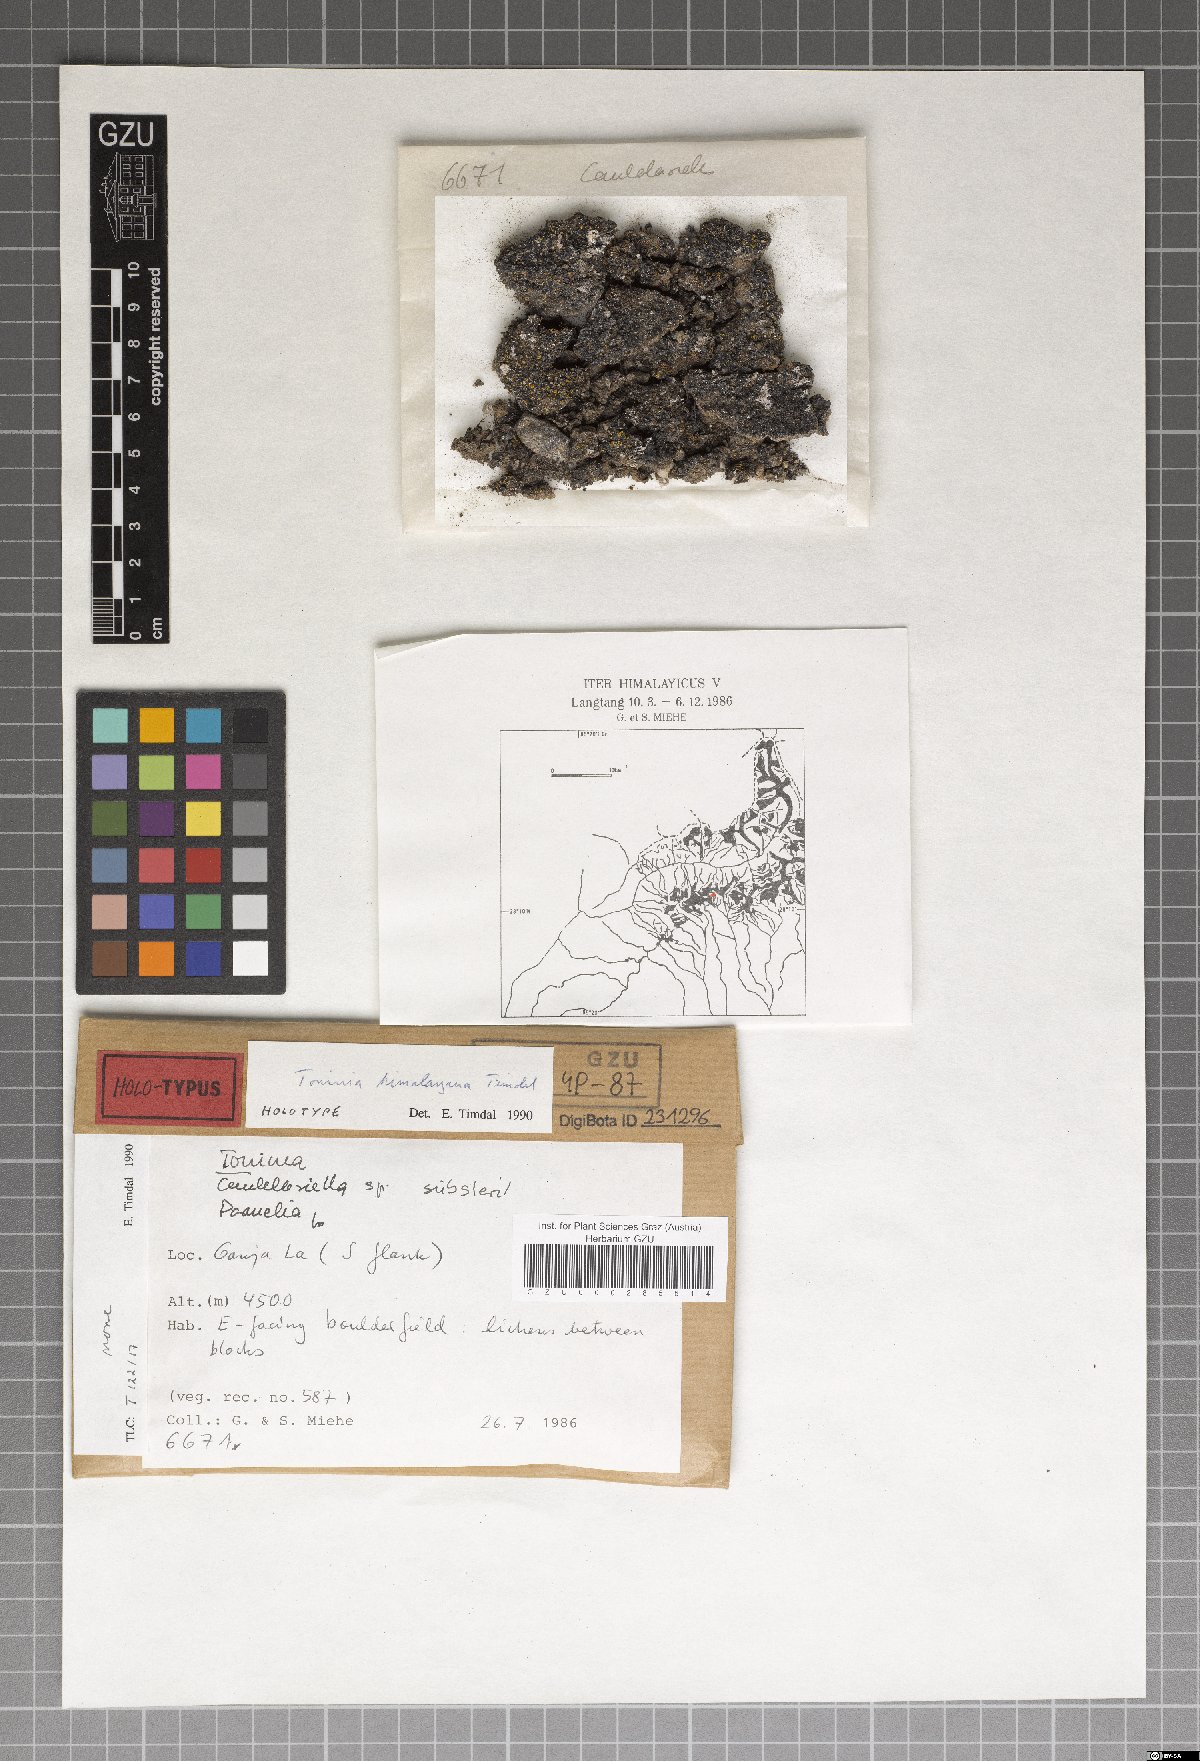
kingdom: Fungi
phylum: Ascomycota
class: Lecanoromycetes
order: Lecanorales
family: Ramalinaceae
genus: Toninia
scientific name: Toninia himalayana
